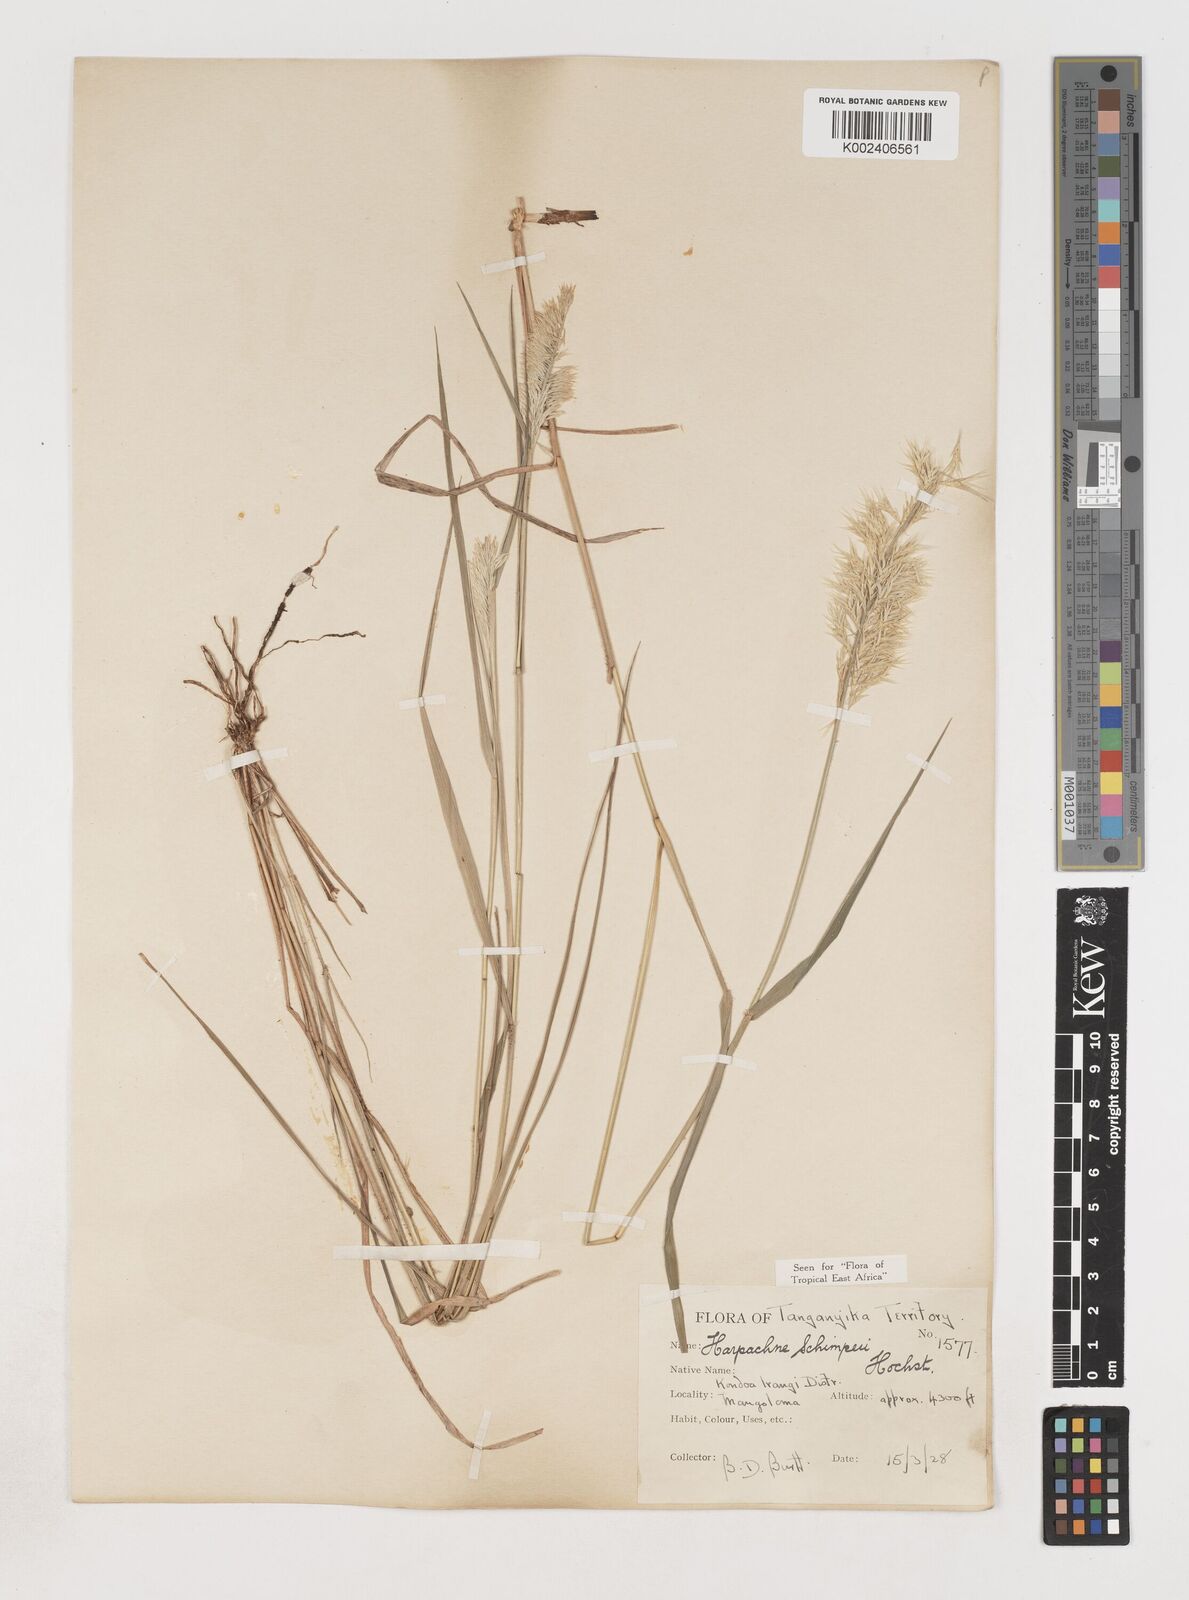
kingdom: Plantae
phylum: Tracheophyta
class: Liliopsida
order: Poales
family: Poaceae
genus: Harpachne
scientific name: Harpachne schimperi
